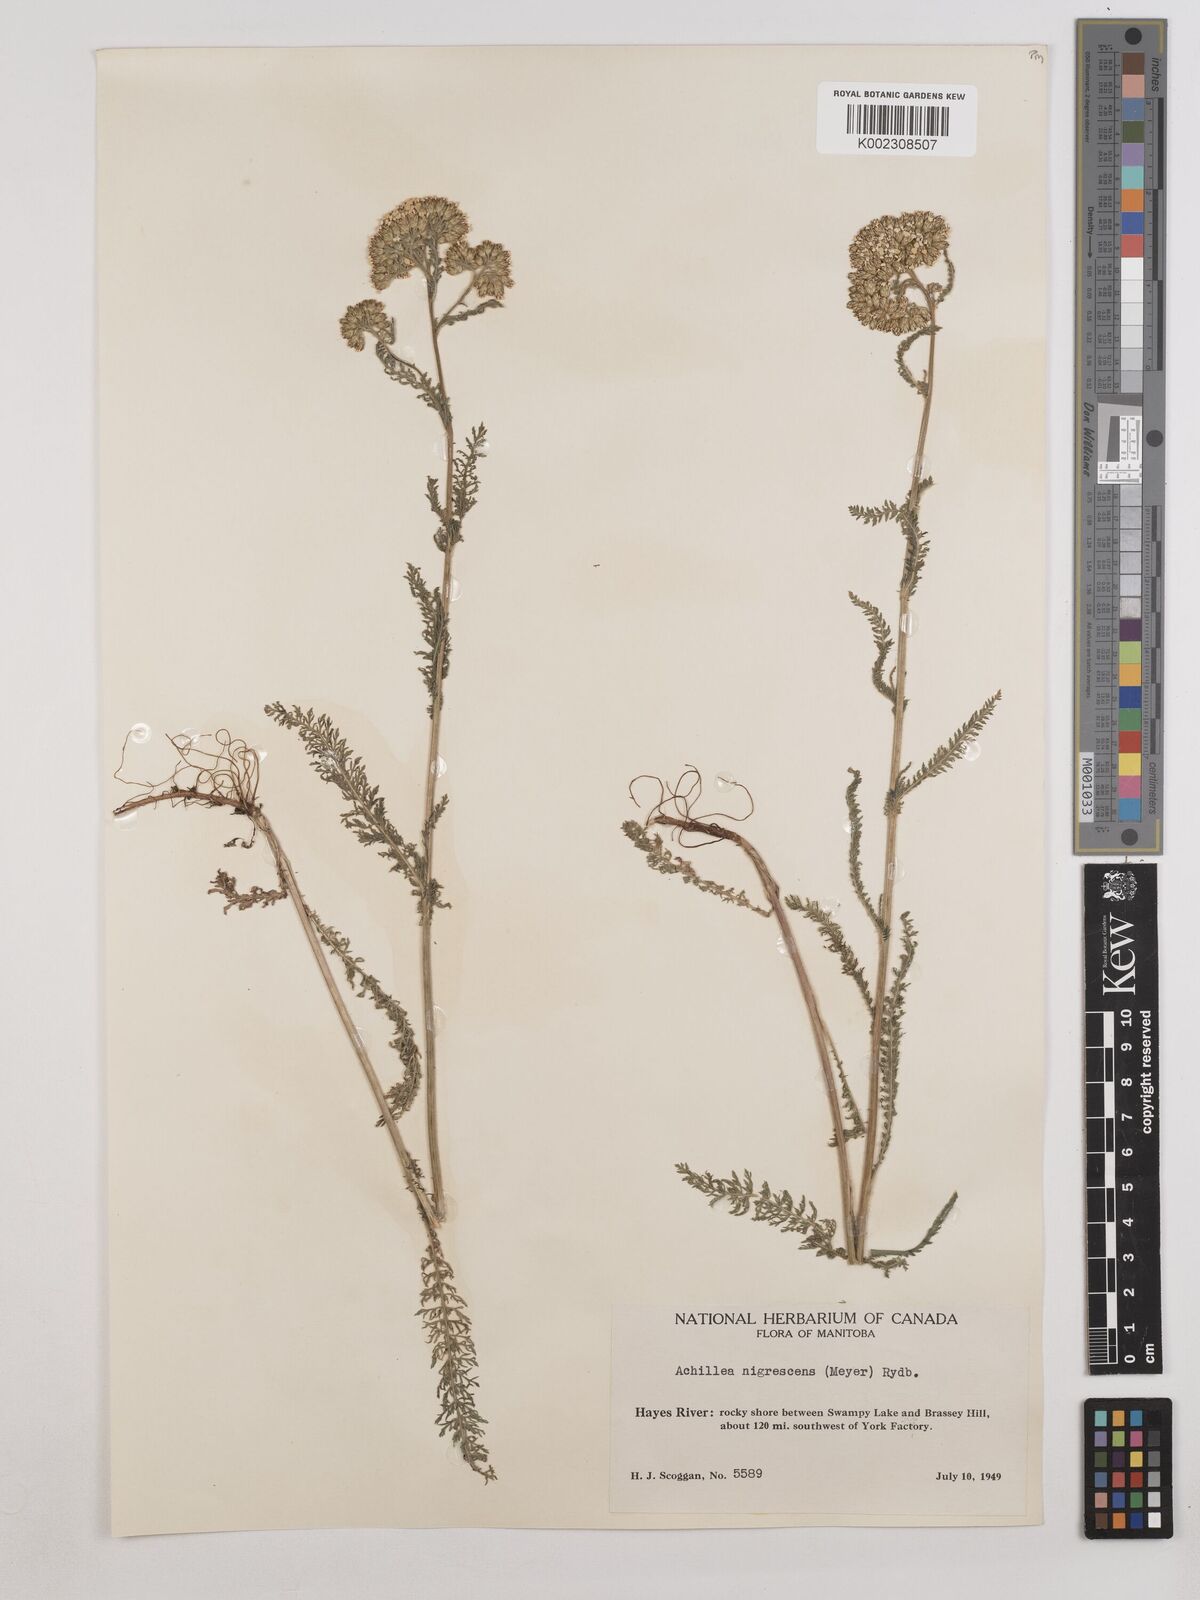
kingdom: Plantae
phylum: Tracheophyta
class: Magnoliopsida
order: Asterales
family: Asteraceae
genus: Achillea
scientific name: Achillea millefolium
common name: Yarrow
